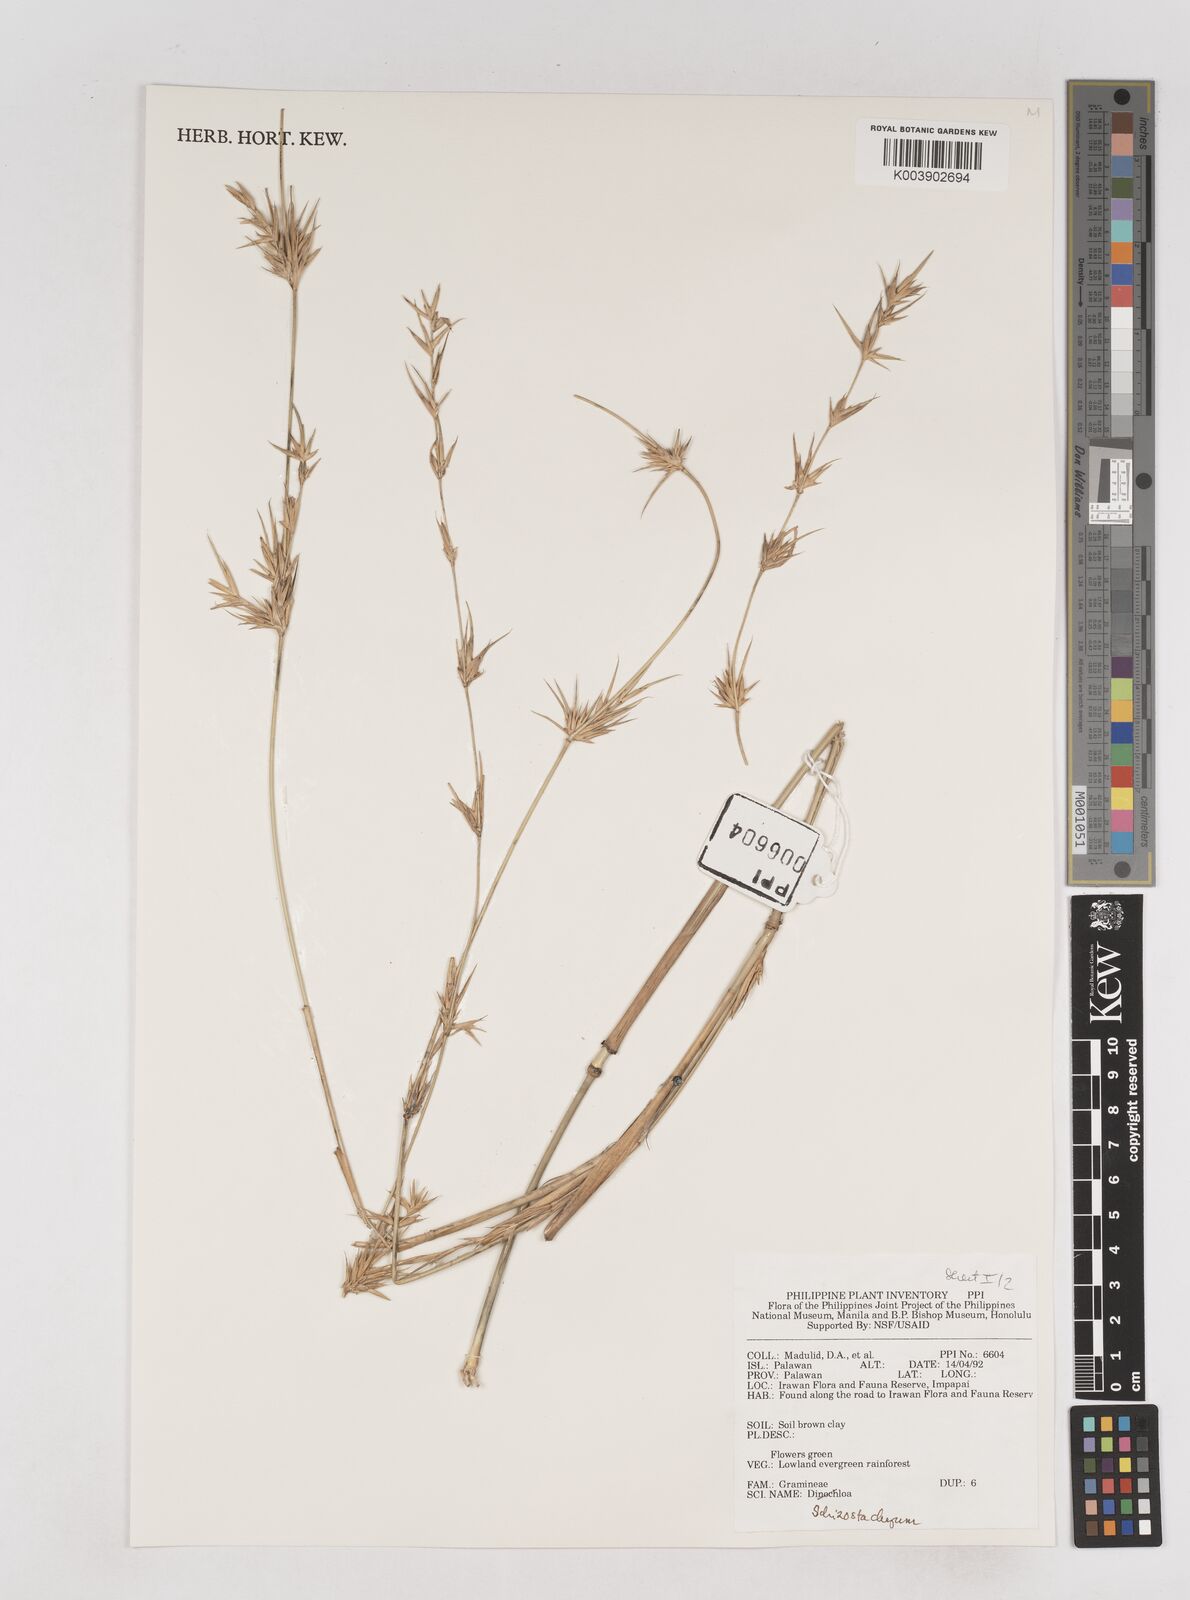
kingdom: Plantae
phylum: Tracheophyta
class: Liliopsida
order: Poales
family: Poaceae
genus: Schizostachyum
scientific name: Schizostachyum
